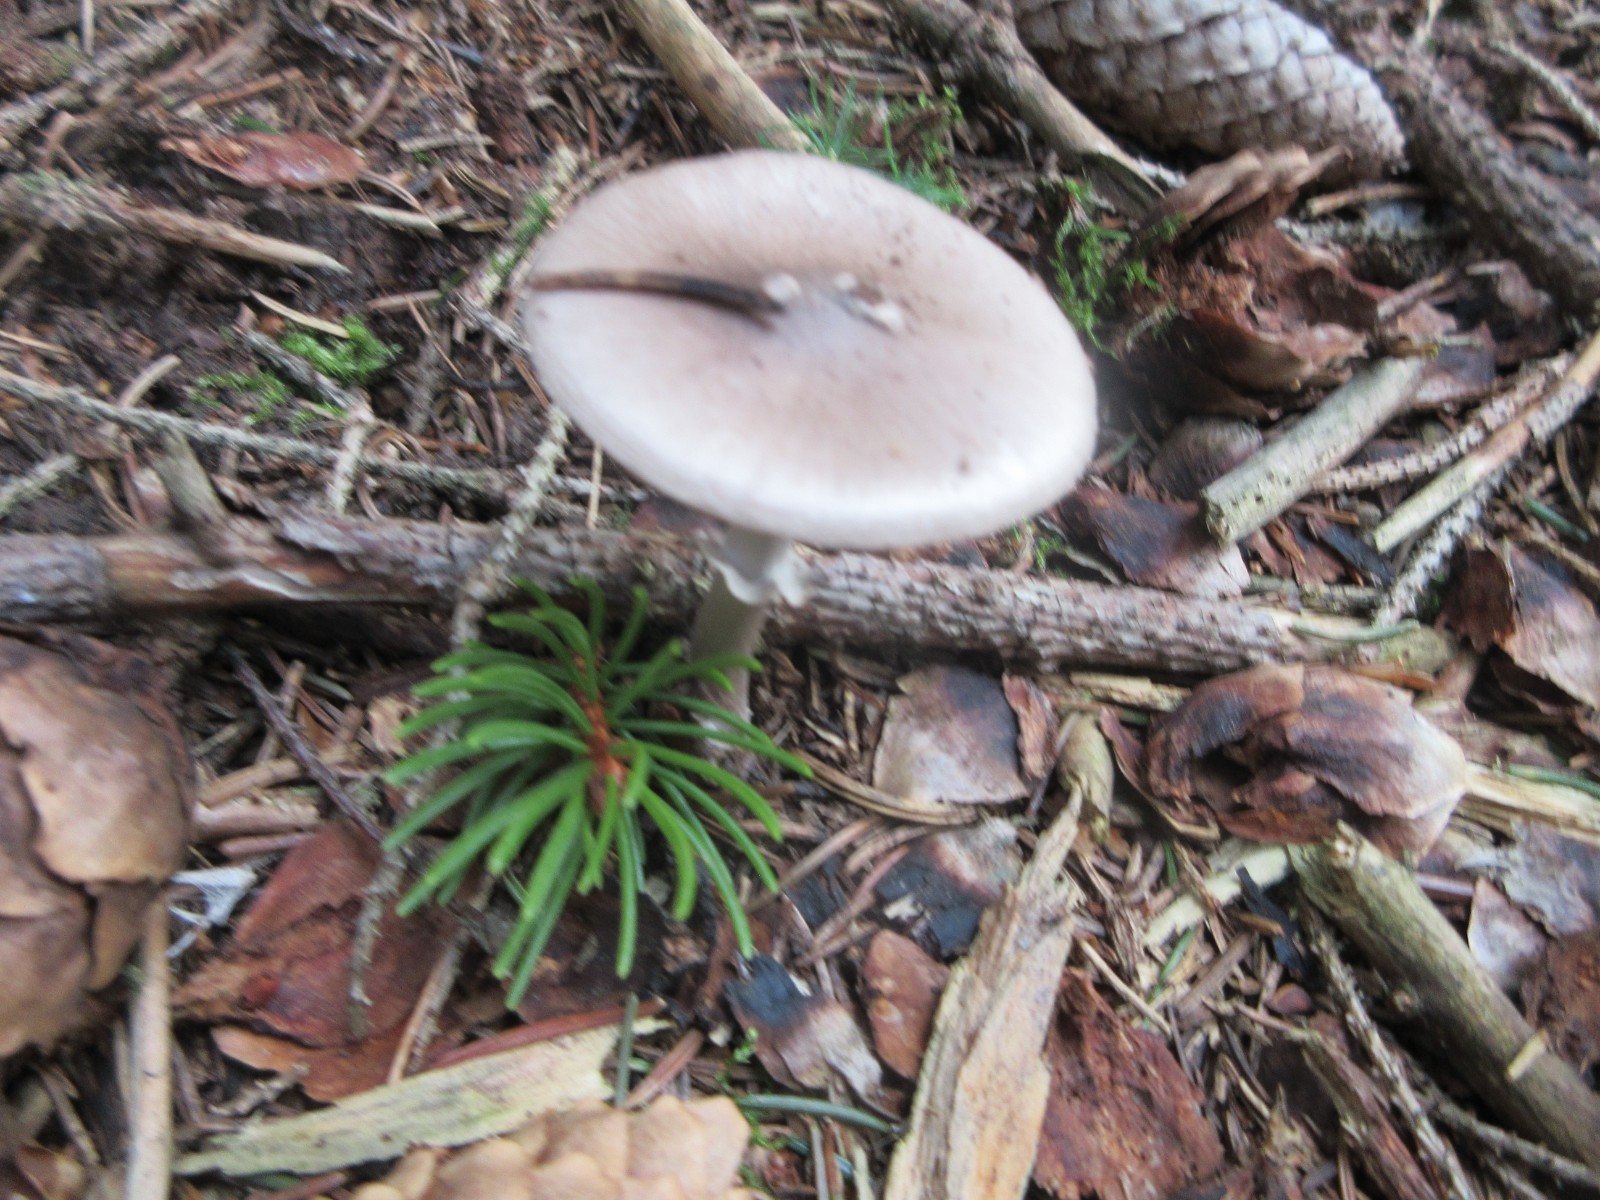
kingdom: Fungi
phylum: Basidiomycota
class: Agaricomycetes
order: Agaricales
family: Amanitaceae
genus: Amanita
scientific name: Amanita porphyria
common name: porfyr-fluesvamp
